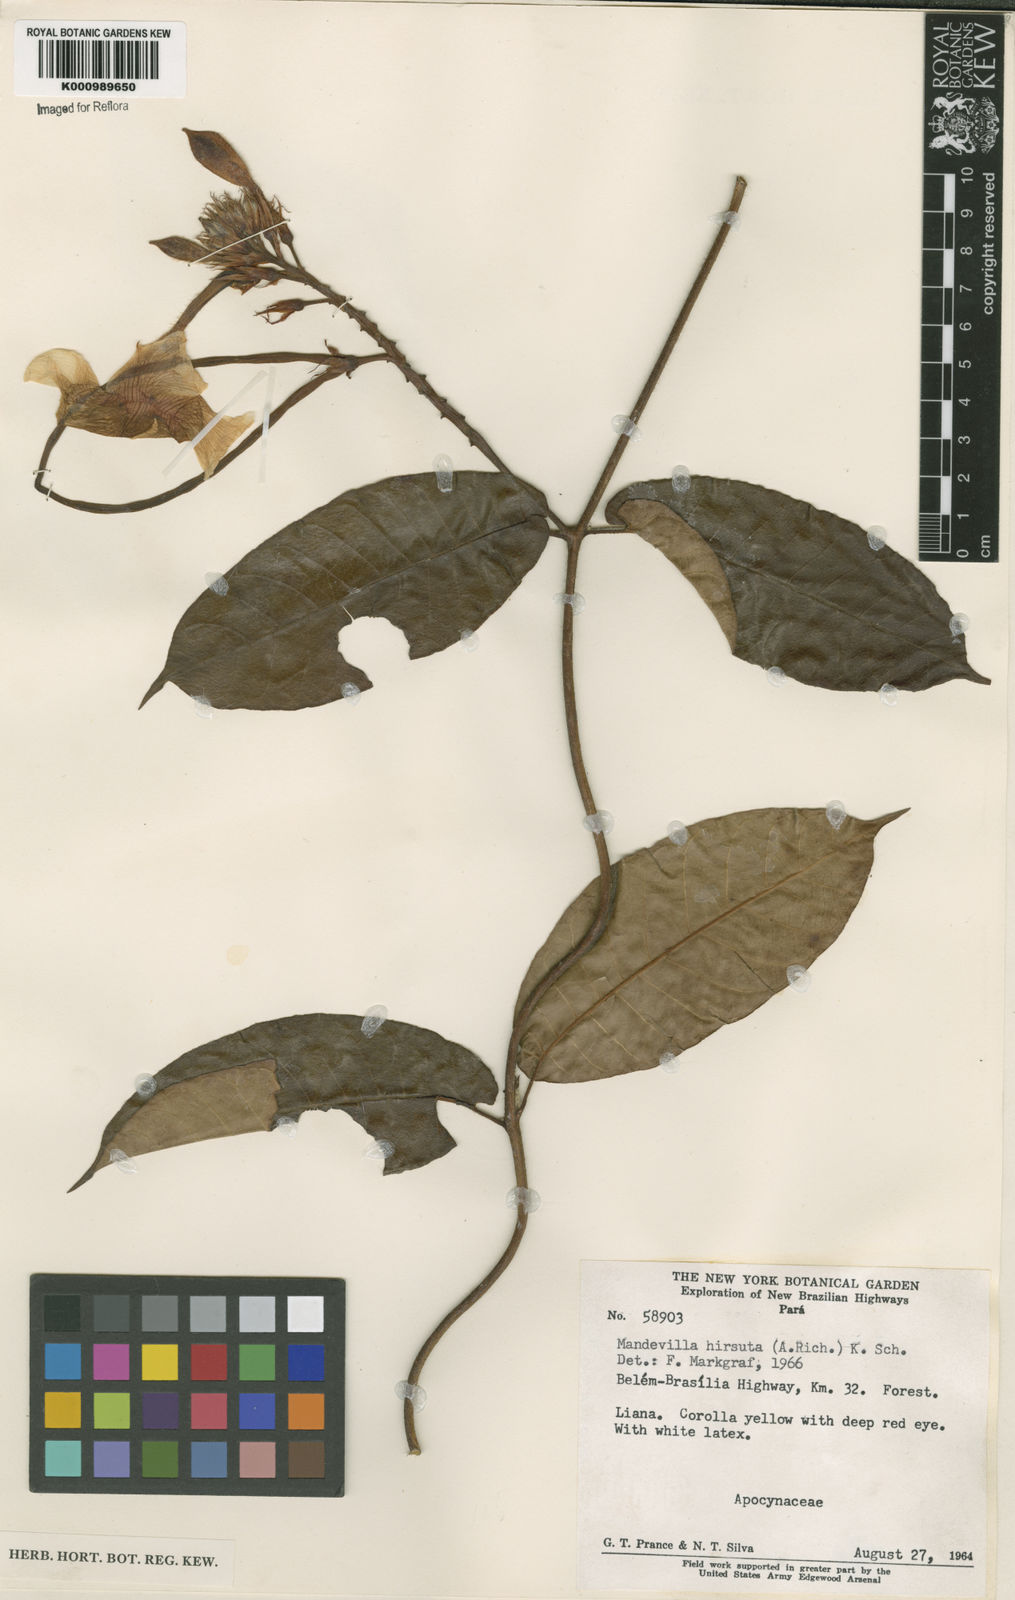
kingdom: Plantae
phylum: Tracheophyta
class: Magnoliopsida
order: Gentianales
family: Apocynaceae
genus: Mandevilla
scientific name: Mandevilla hirsuta
